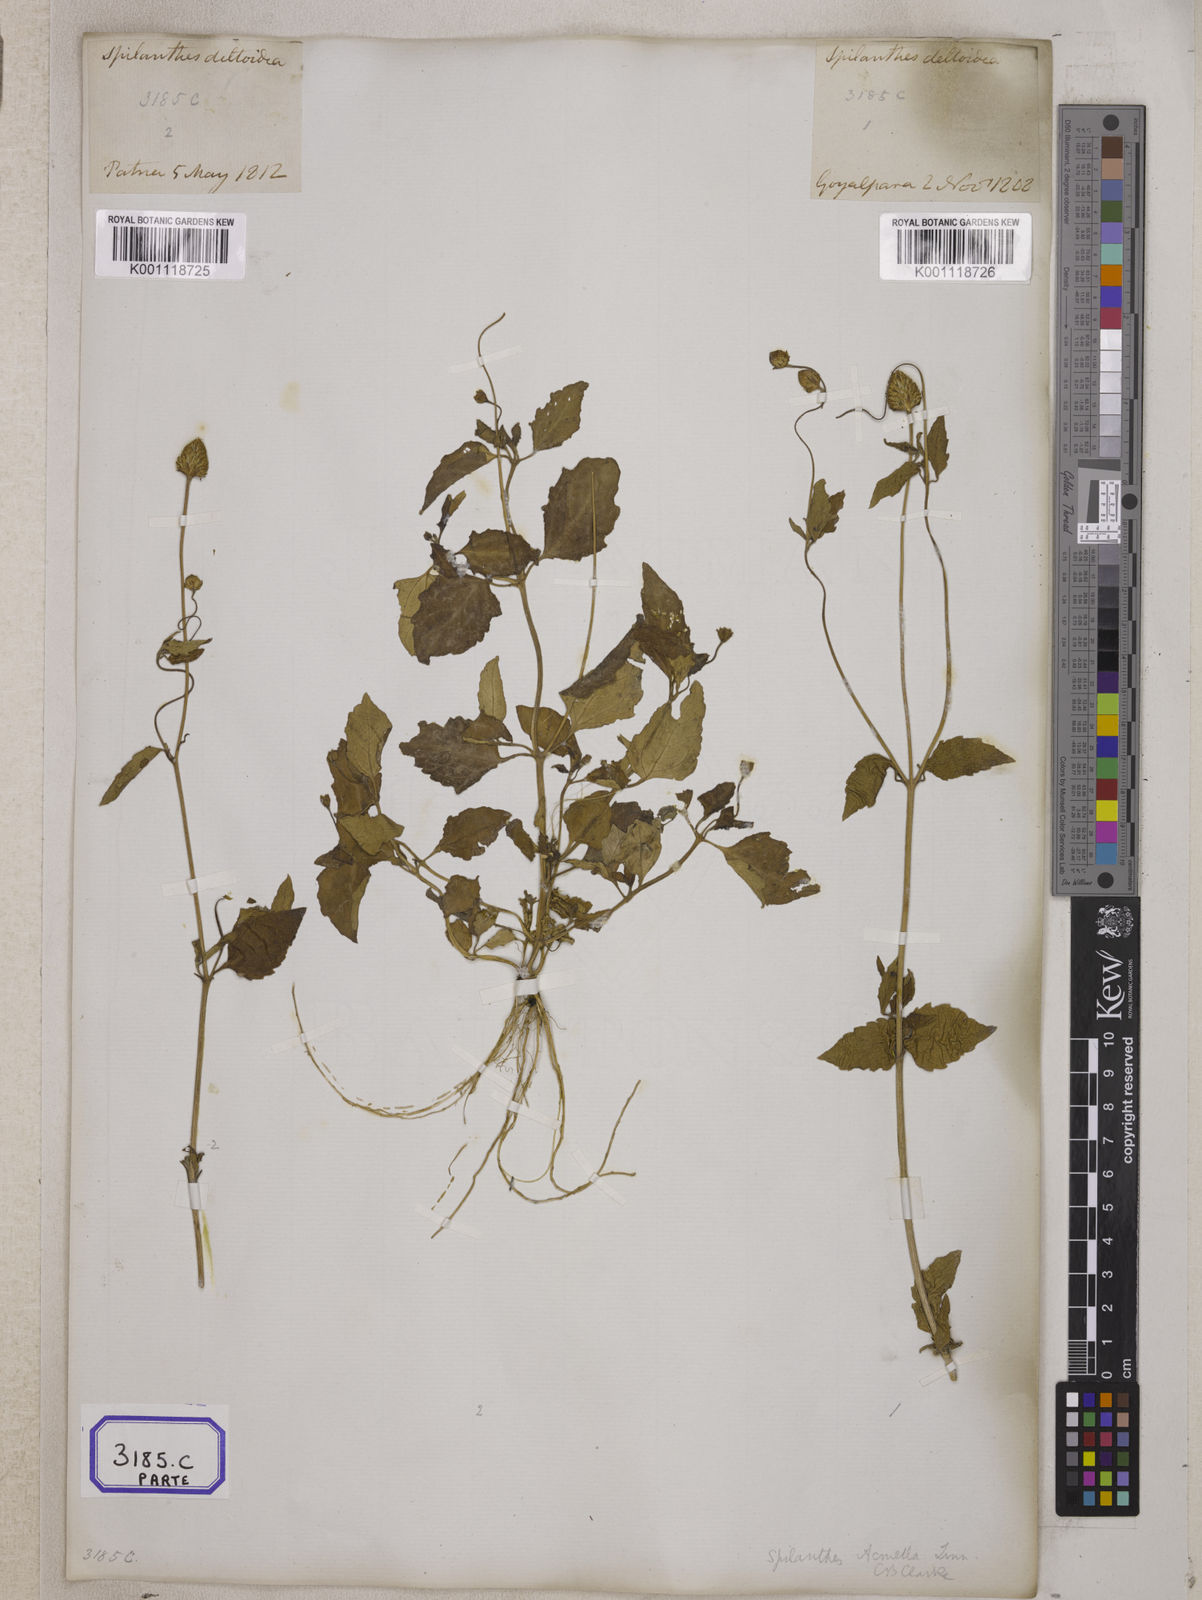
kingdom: Plantae
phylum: Tracheophyta
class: Magnoliopsida
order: Asterales
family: Asteraceae
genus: Blainvillea
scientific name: Blainvillea acmella
